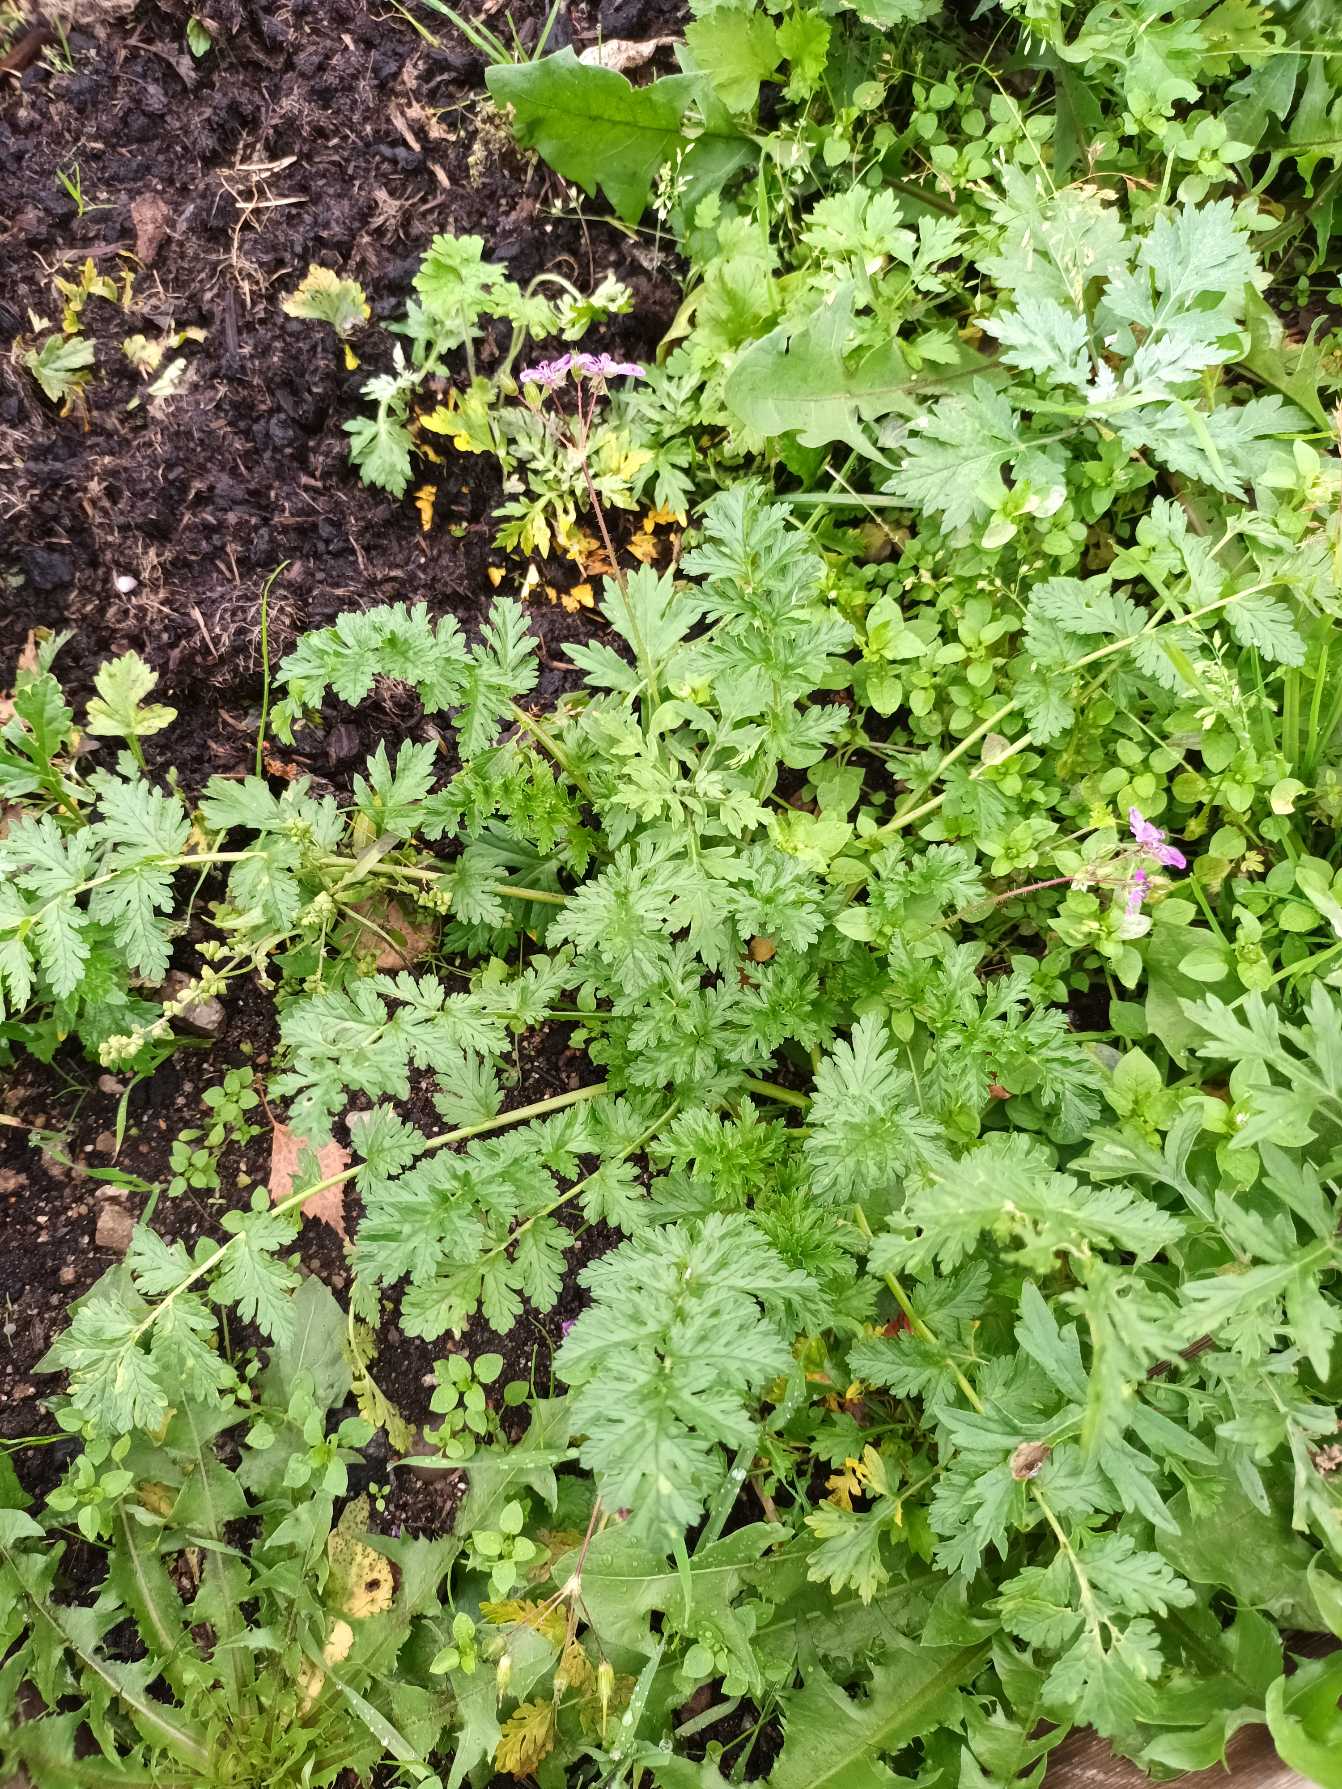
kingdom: Plantae
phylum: Tracheophyta
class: Magnoliopsida
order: Geraniales
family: Geraniaceae
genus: Erodium
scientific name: Erodium cicutarium
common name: Hejrenæb
